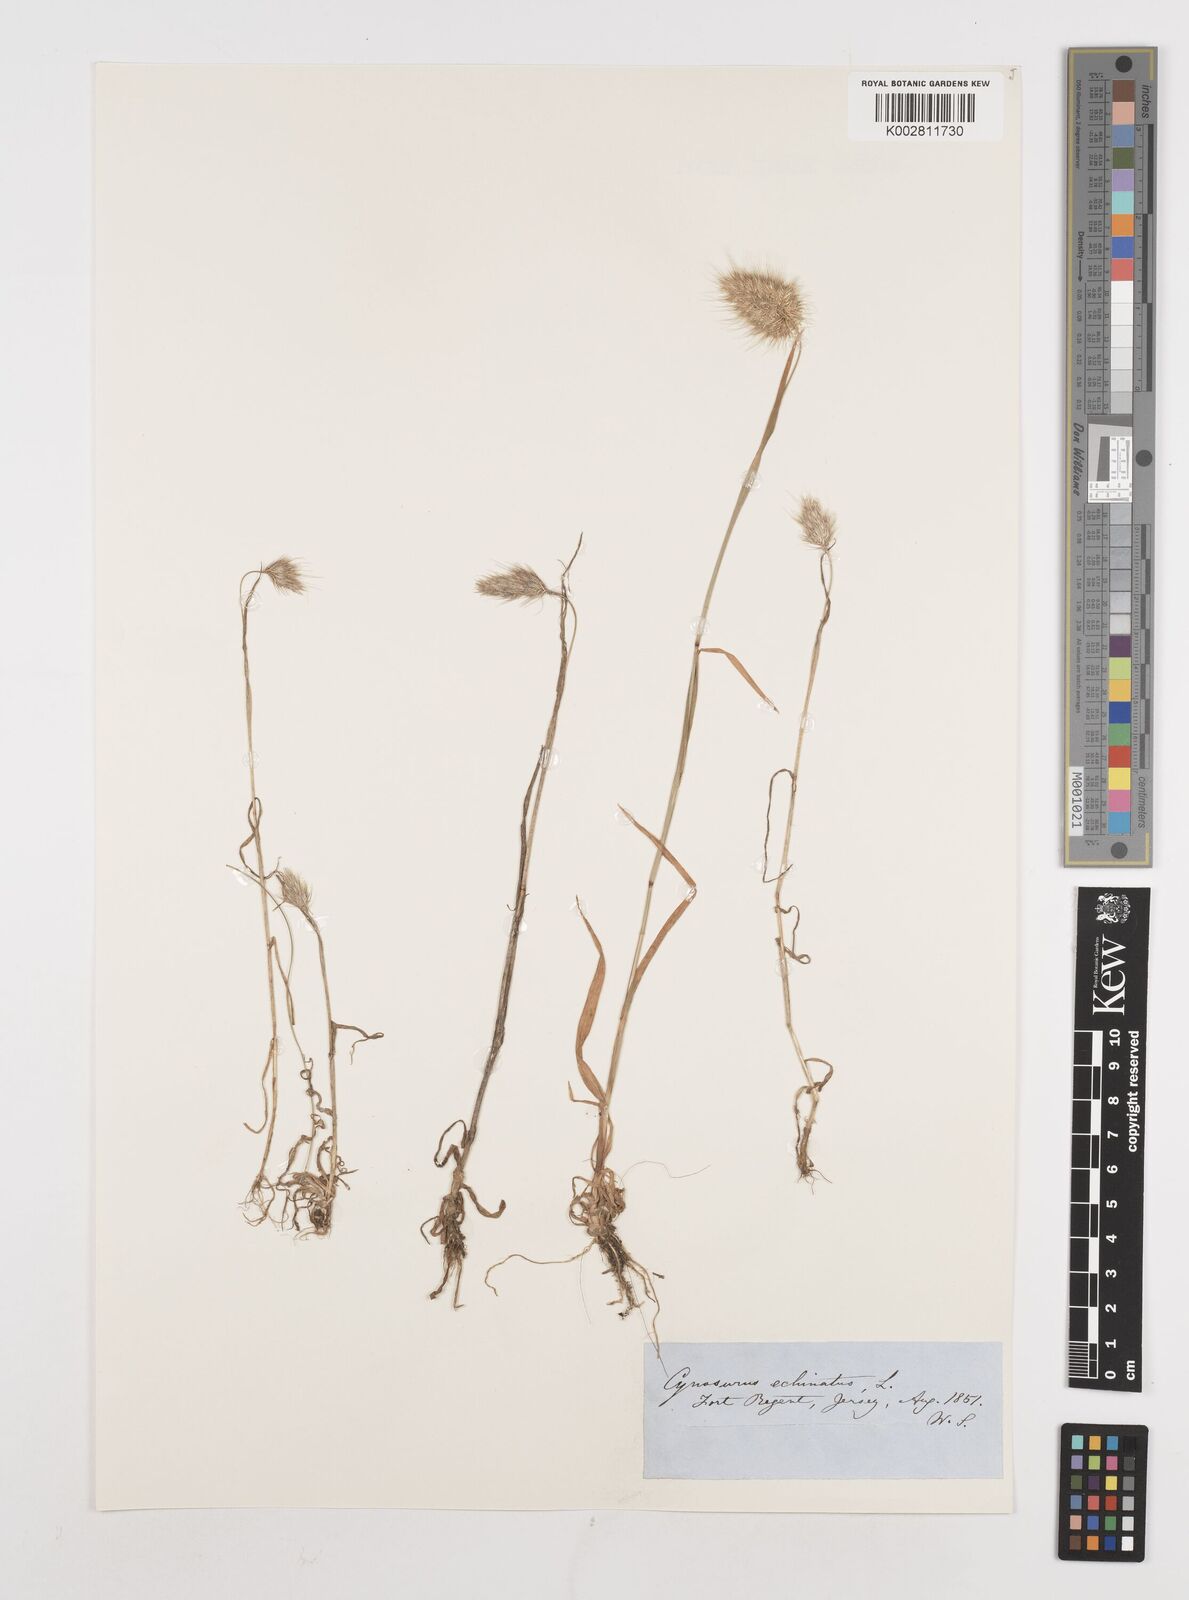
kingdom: Plantae
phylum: Tracheophyta
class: Liliopsida
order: Poales
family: Poaceae
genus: Cynosurus
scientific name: Cynosurus echinatus
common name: Rough dog's-tail
